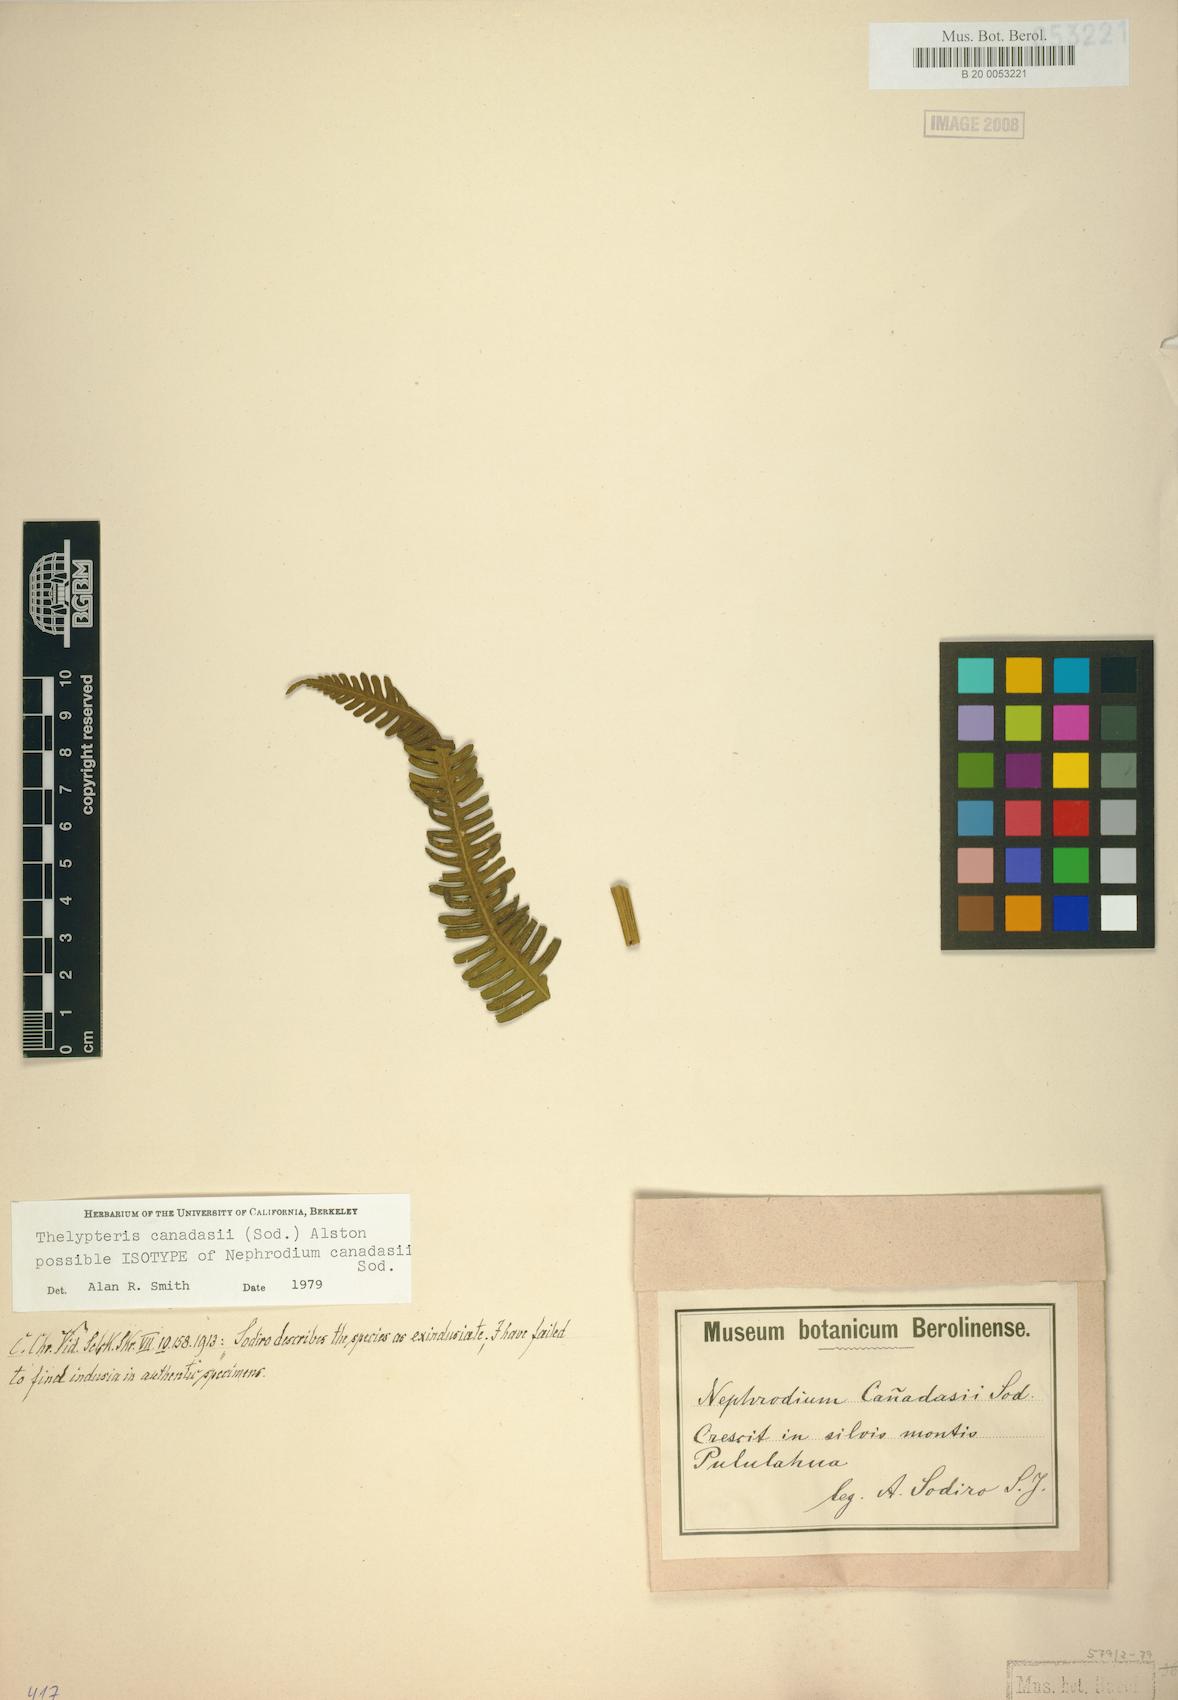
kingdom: Plantae
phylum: Tracheophyta
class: Polypodiopsida
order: Polypodiales
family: Thelypteridaceae
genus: Amauropelta
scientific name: Amauropelta canadasii
